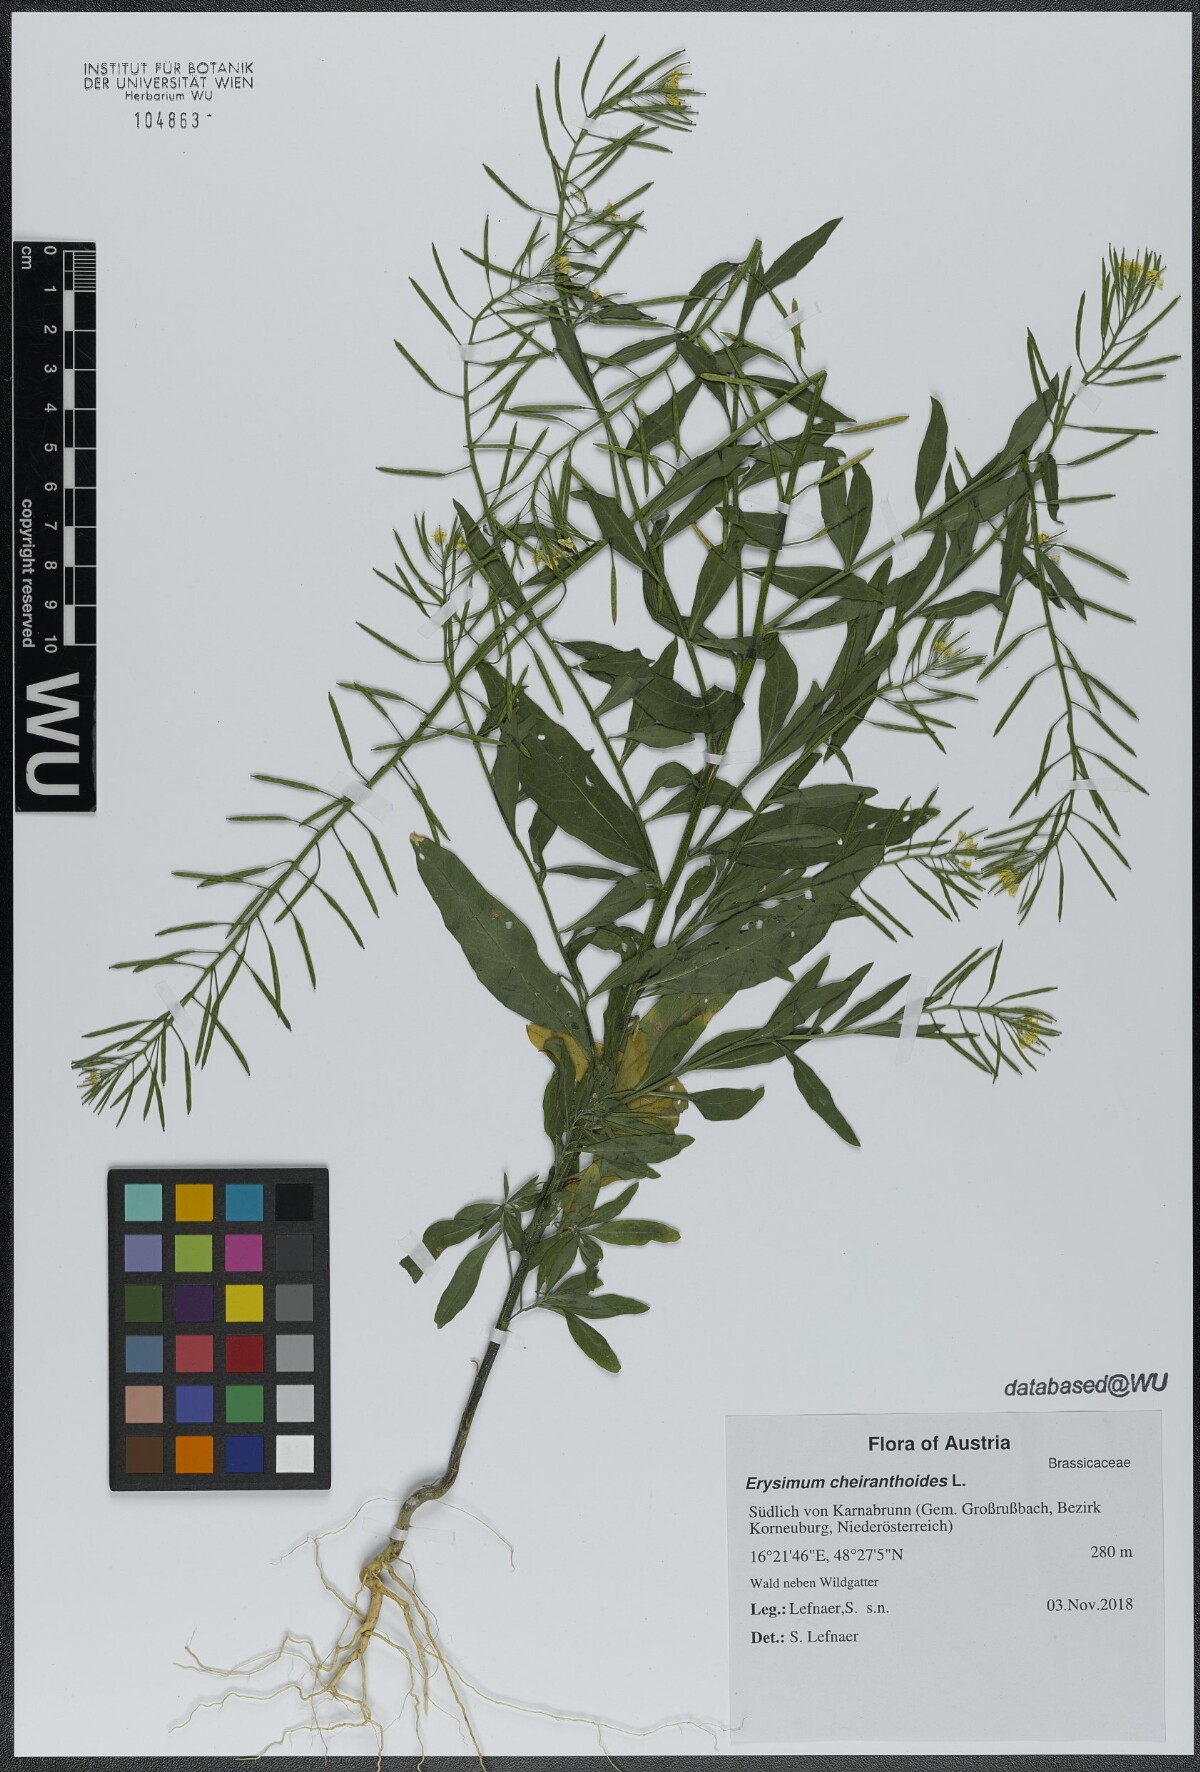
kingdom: Plantae
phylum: Tracheophyta
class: Magnoliopsida
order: Brassicales
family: Brassicaceae
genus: Erysimum
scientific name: Erysimum cheiranthoides
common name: Treacle mustard
